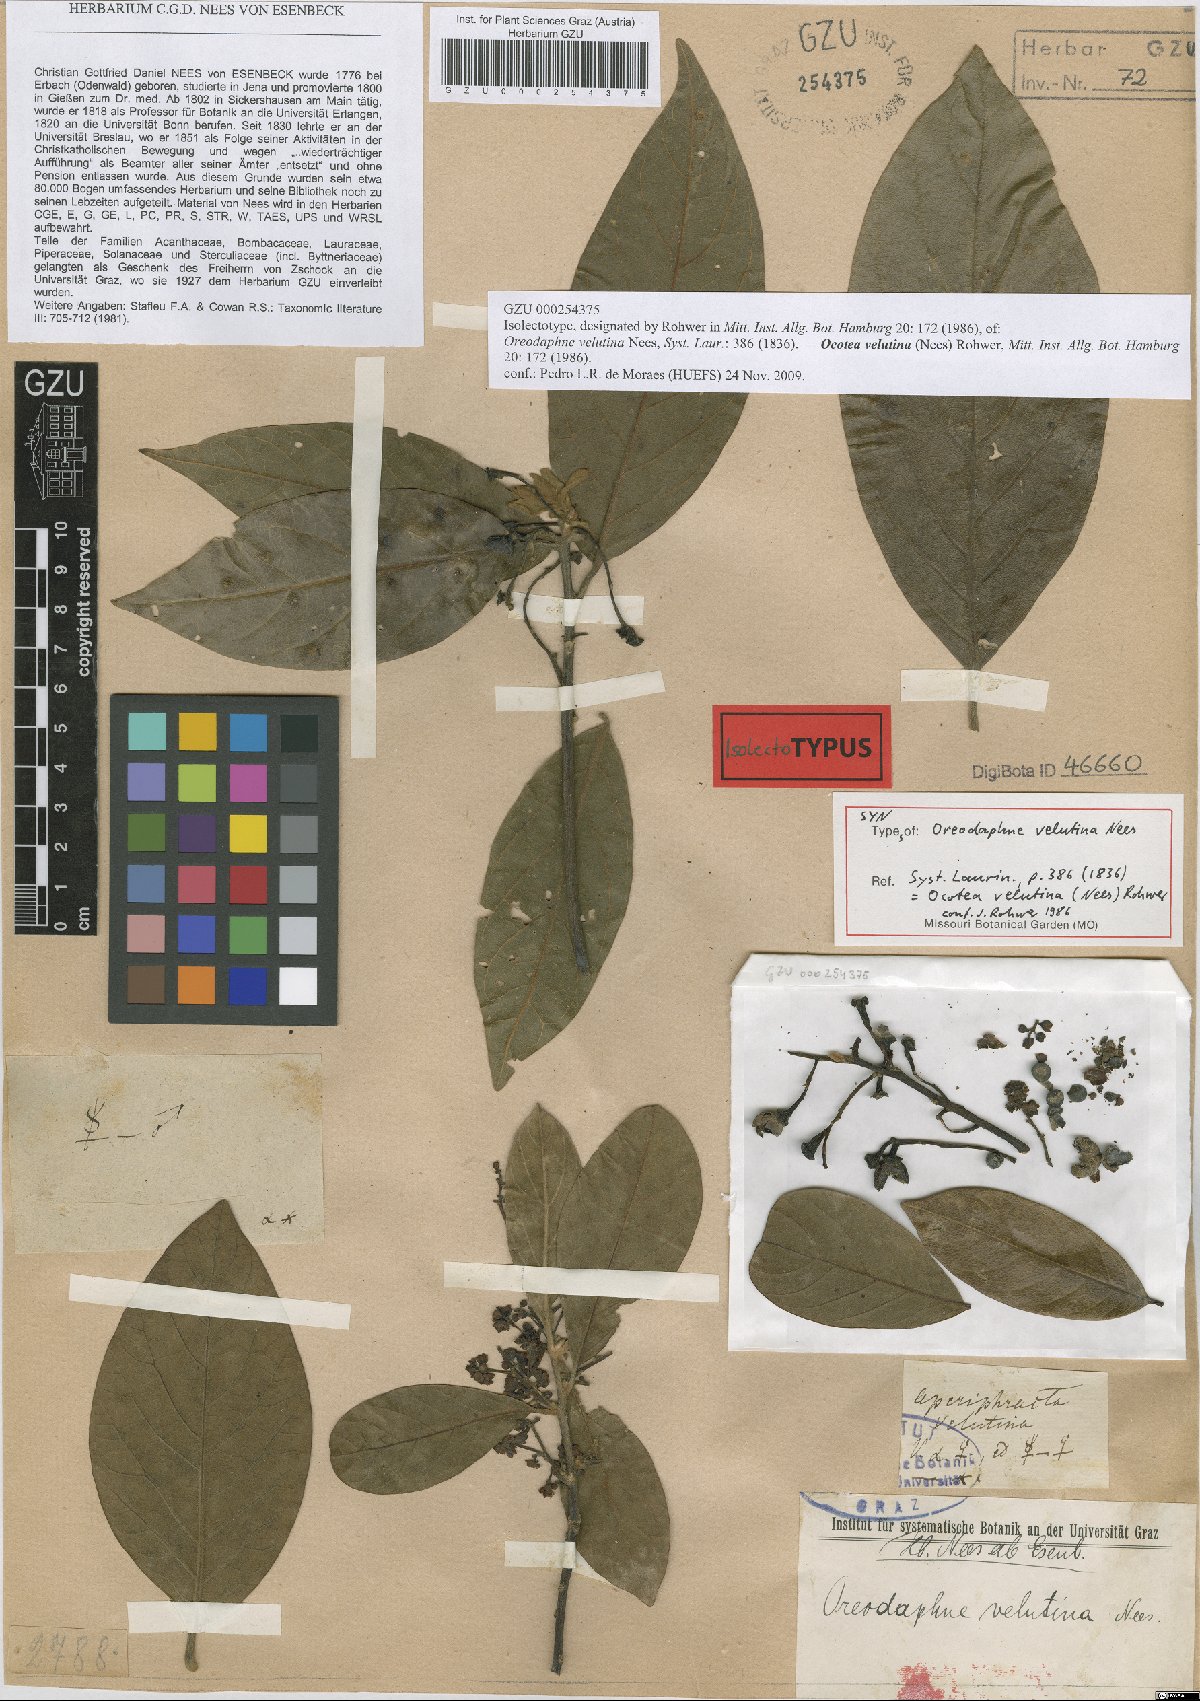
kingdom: Plantae
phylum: Tracheophyta
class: Magnoliopsida
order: Laurales
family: Lauraceae
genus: Andea
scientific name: Andea velutina
